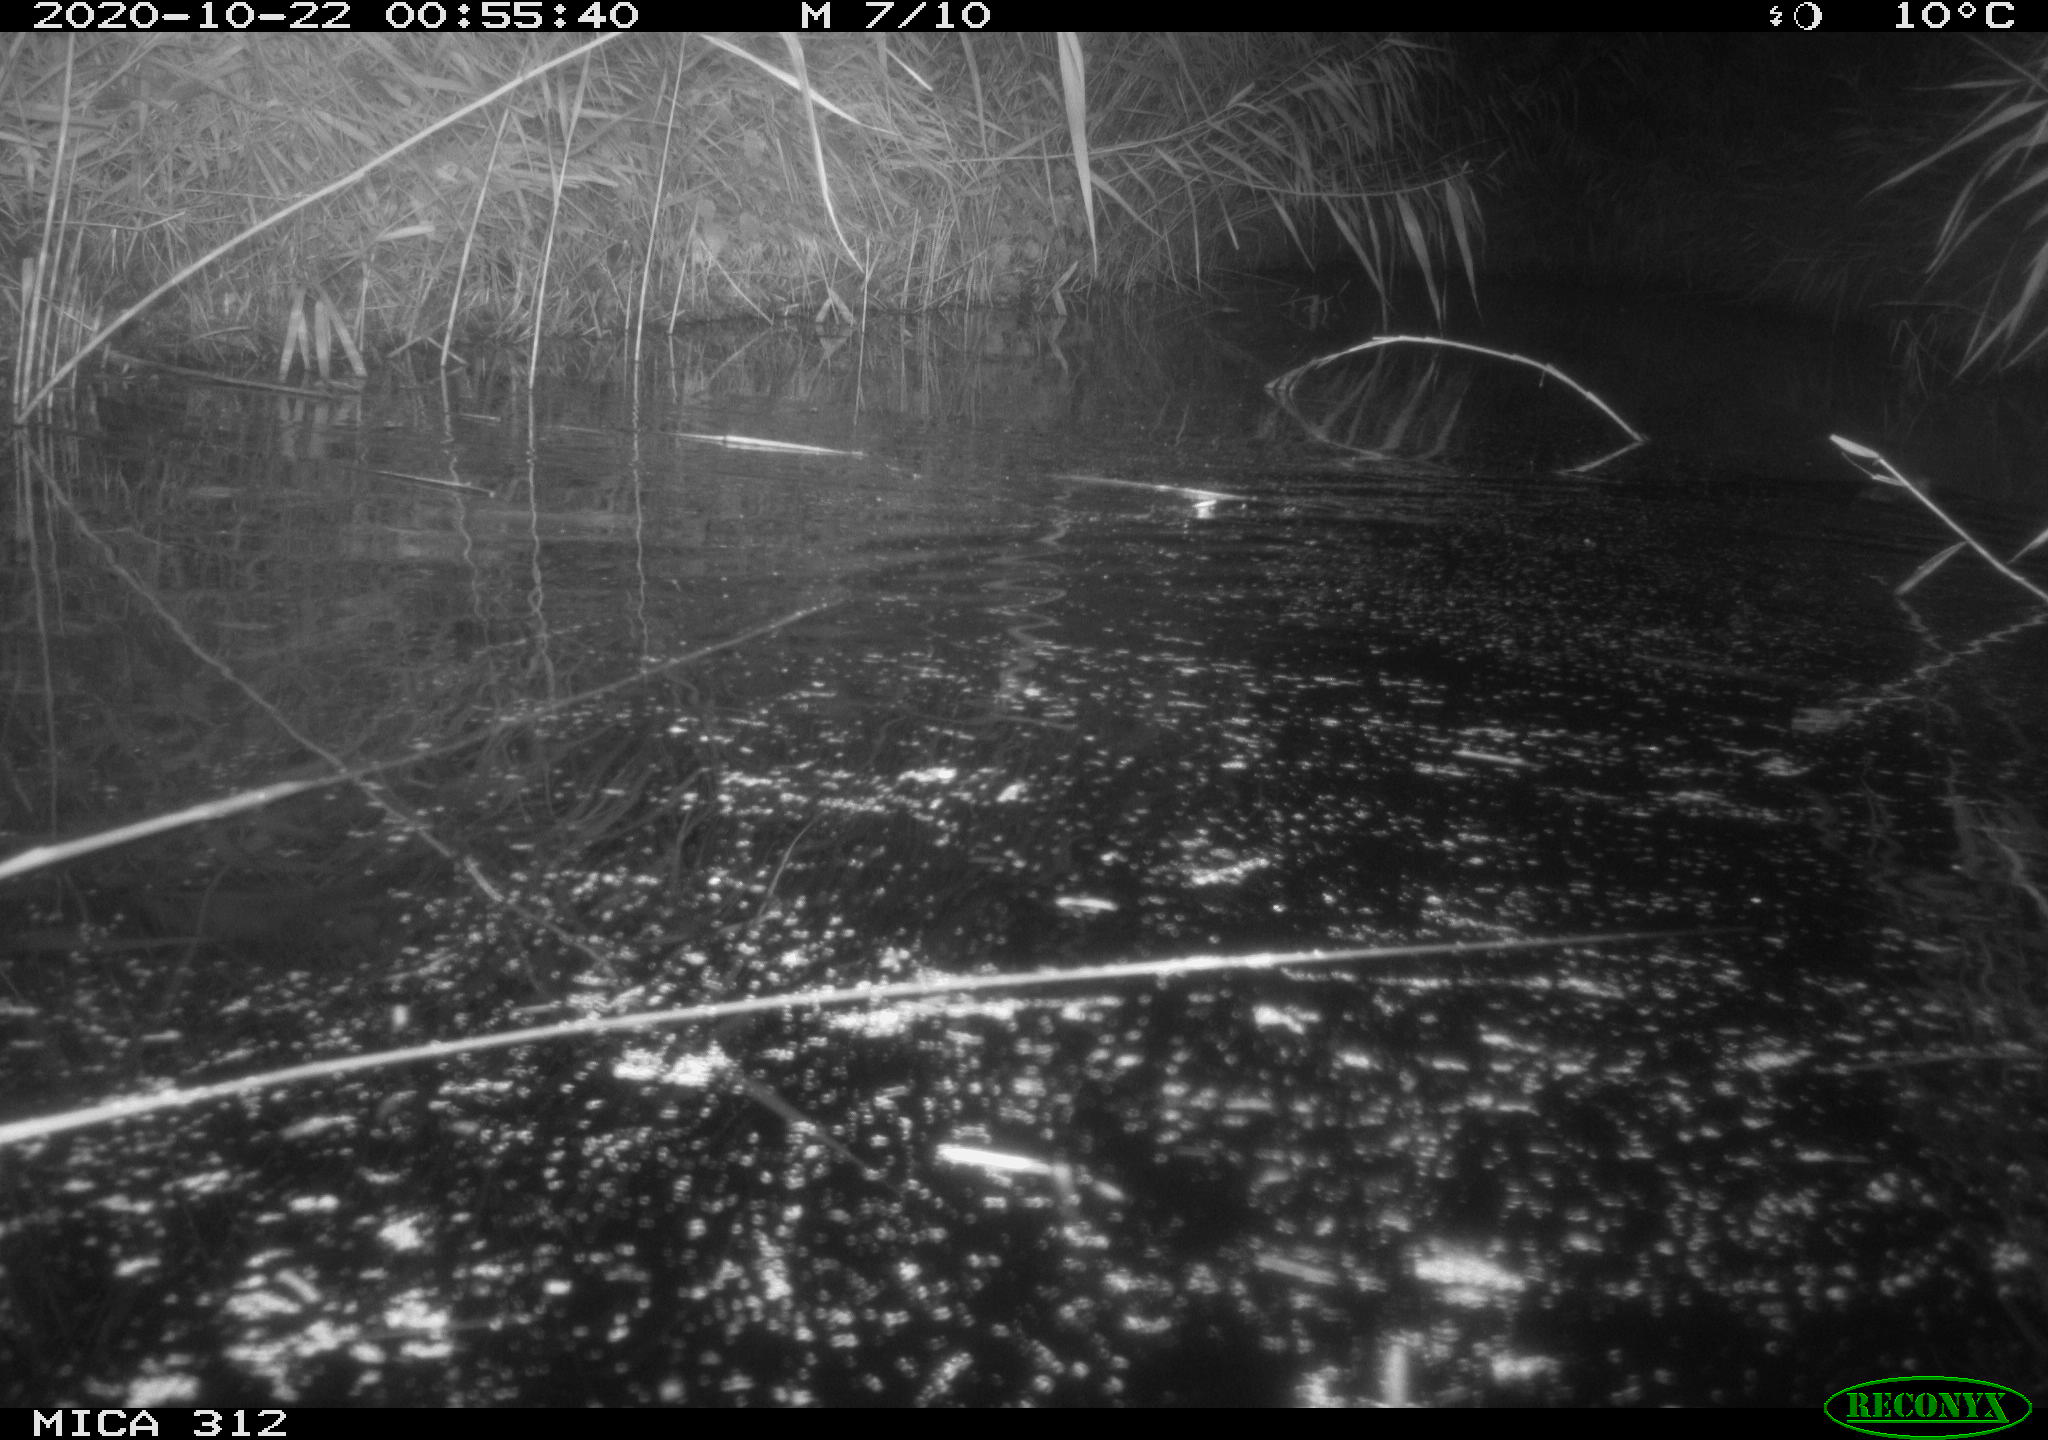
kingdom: Animalia
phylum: Chordata
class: Mammalia
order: Rodentia
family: Muridae
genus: Rattus
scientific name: Rattus norvegicus
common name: Brown rat
